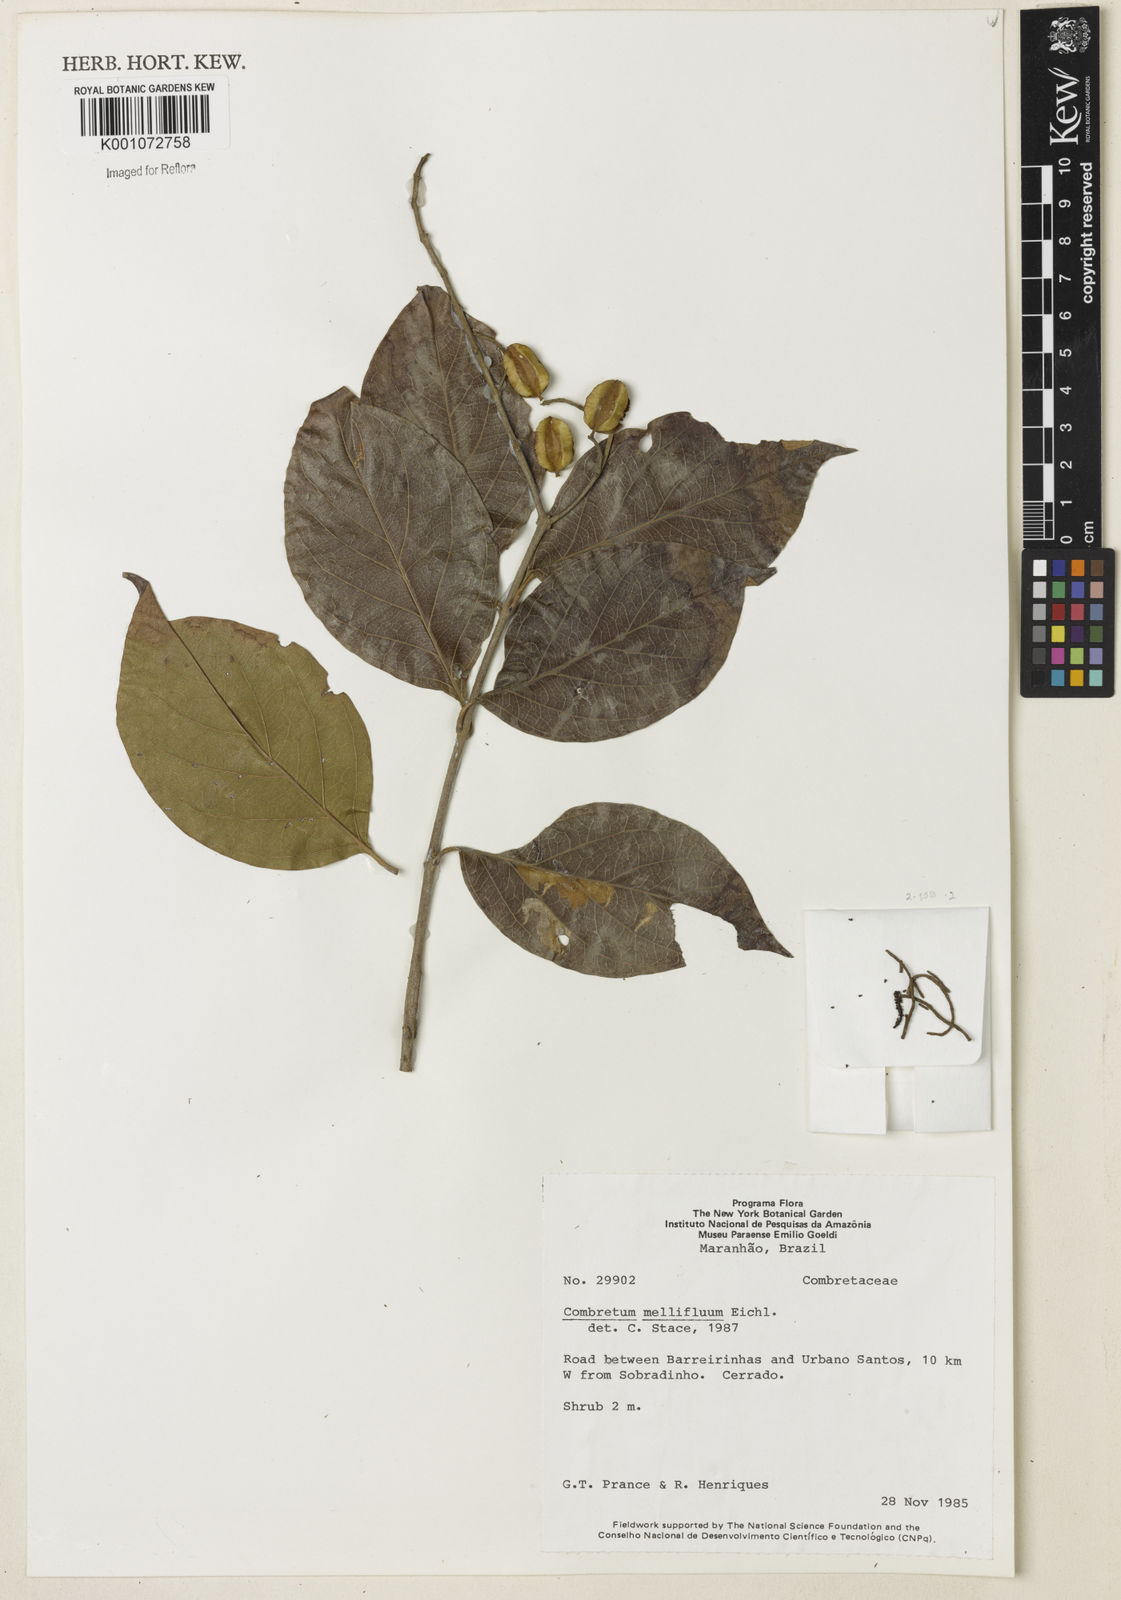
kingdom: Plantae
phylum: Tracheophyta
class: Magnoliopsida
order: Myrtales
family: Combretaceae
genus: Combretum
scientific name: Combretum mellifluum
